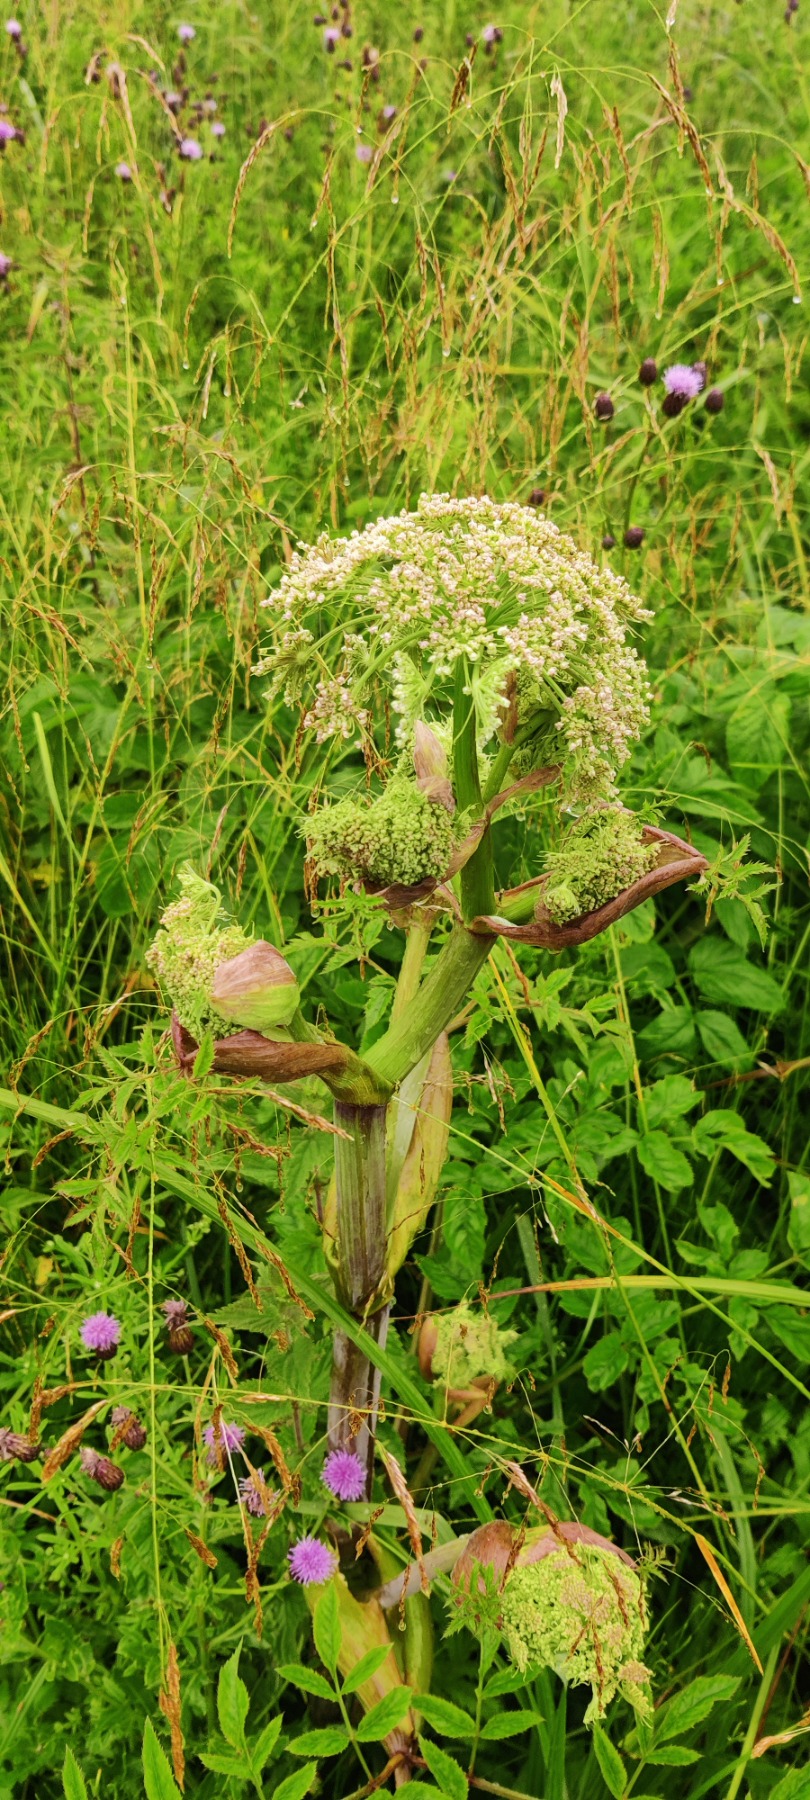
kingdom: Plantae
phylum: Tracheophyta
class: Magnoliopsida
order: Apiales
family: Apiaceae
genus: Angelica
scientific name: Angelica sylvestris
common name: Angelik
